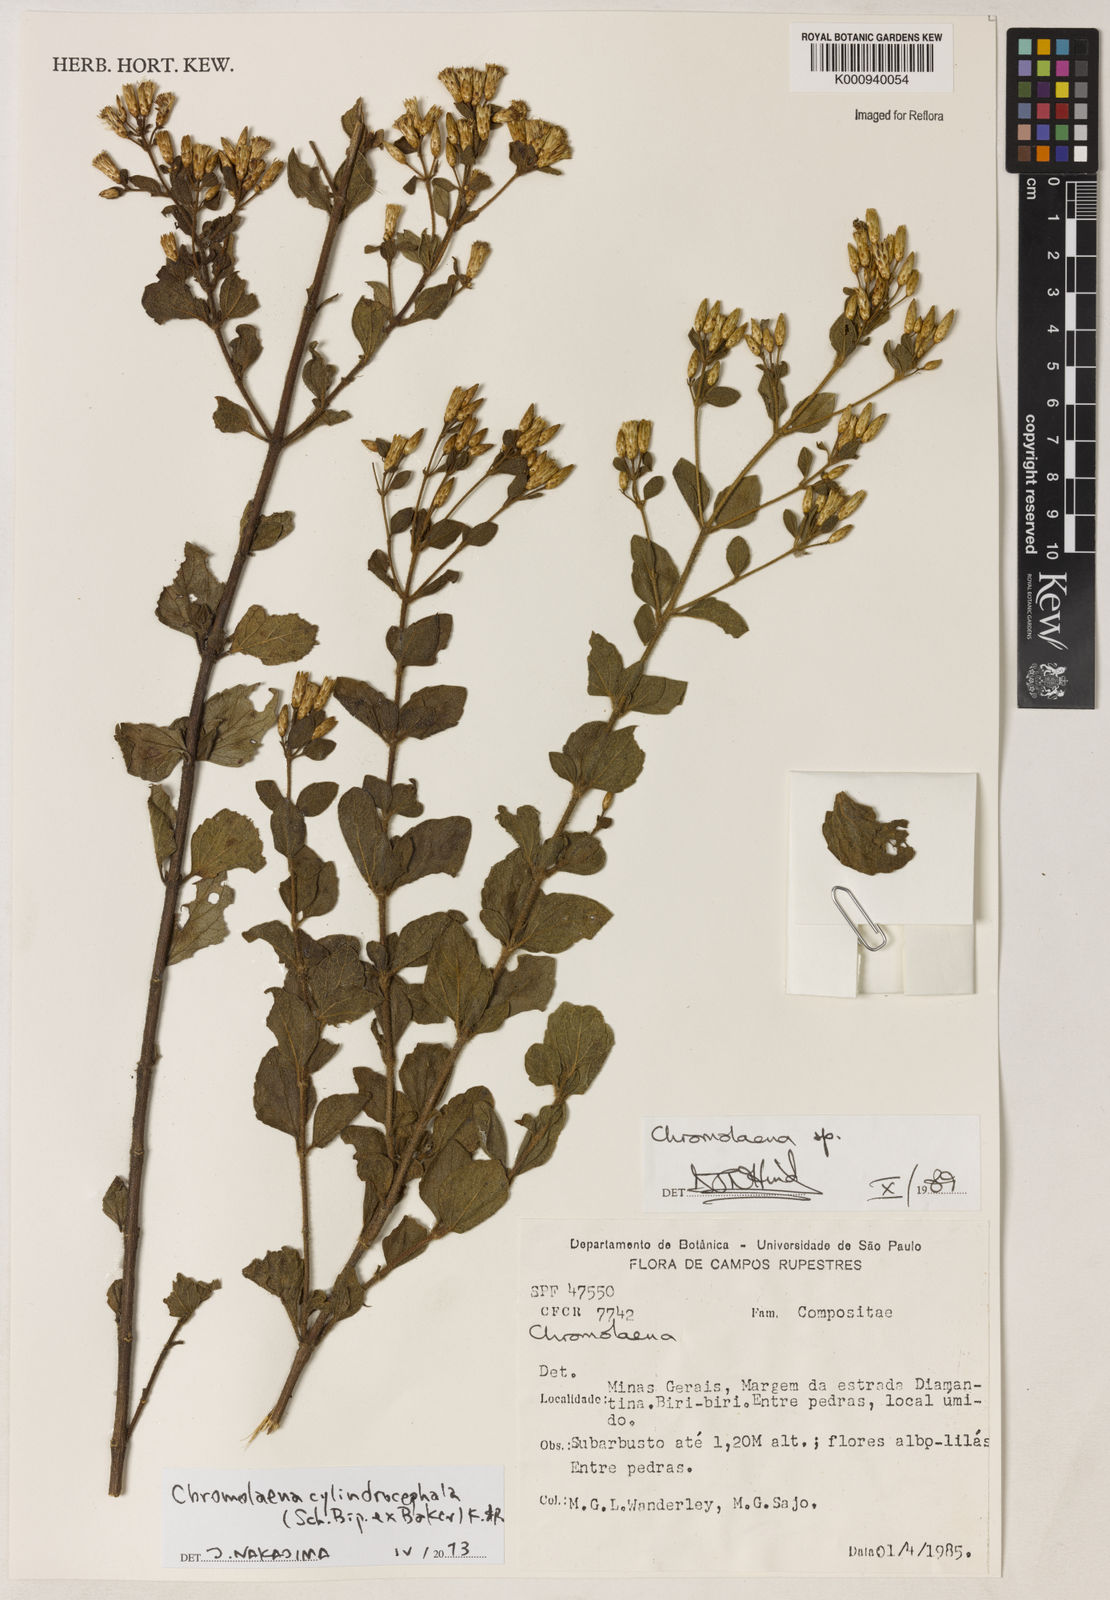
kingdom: Plantae
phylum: Tracheophyta
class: Magnoliopsida
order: Asterales
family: Asteraceae
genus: Chromolaena
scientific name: Chromolaena cylindrocephala
